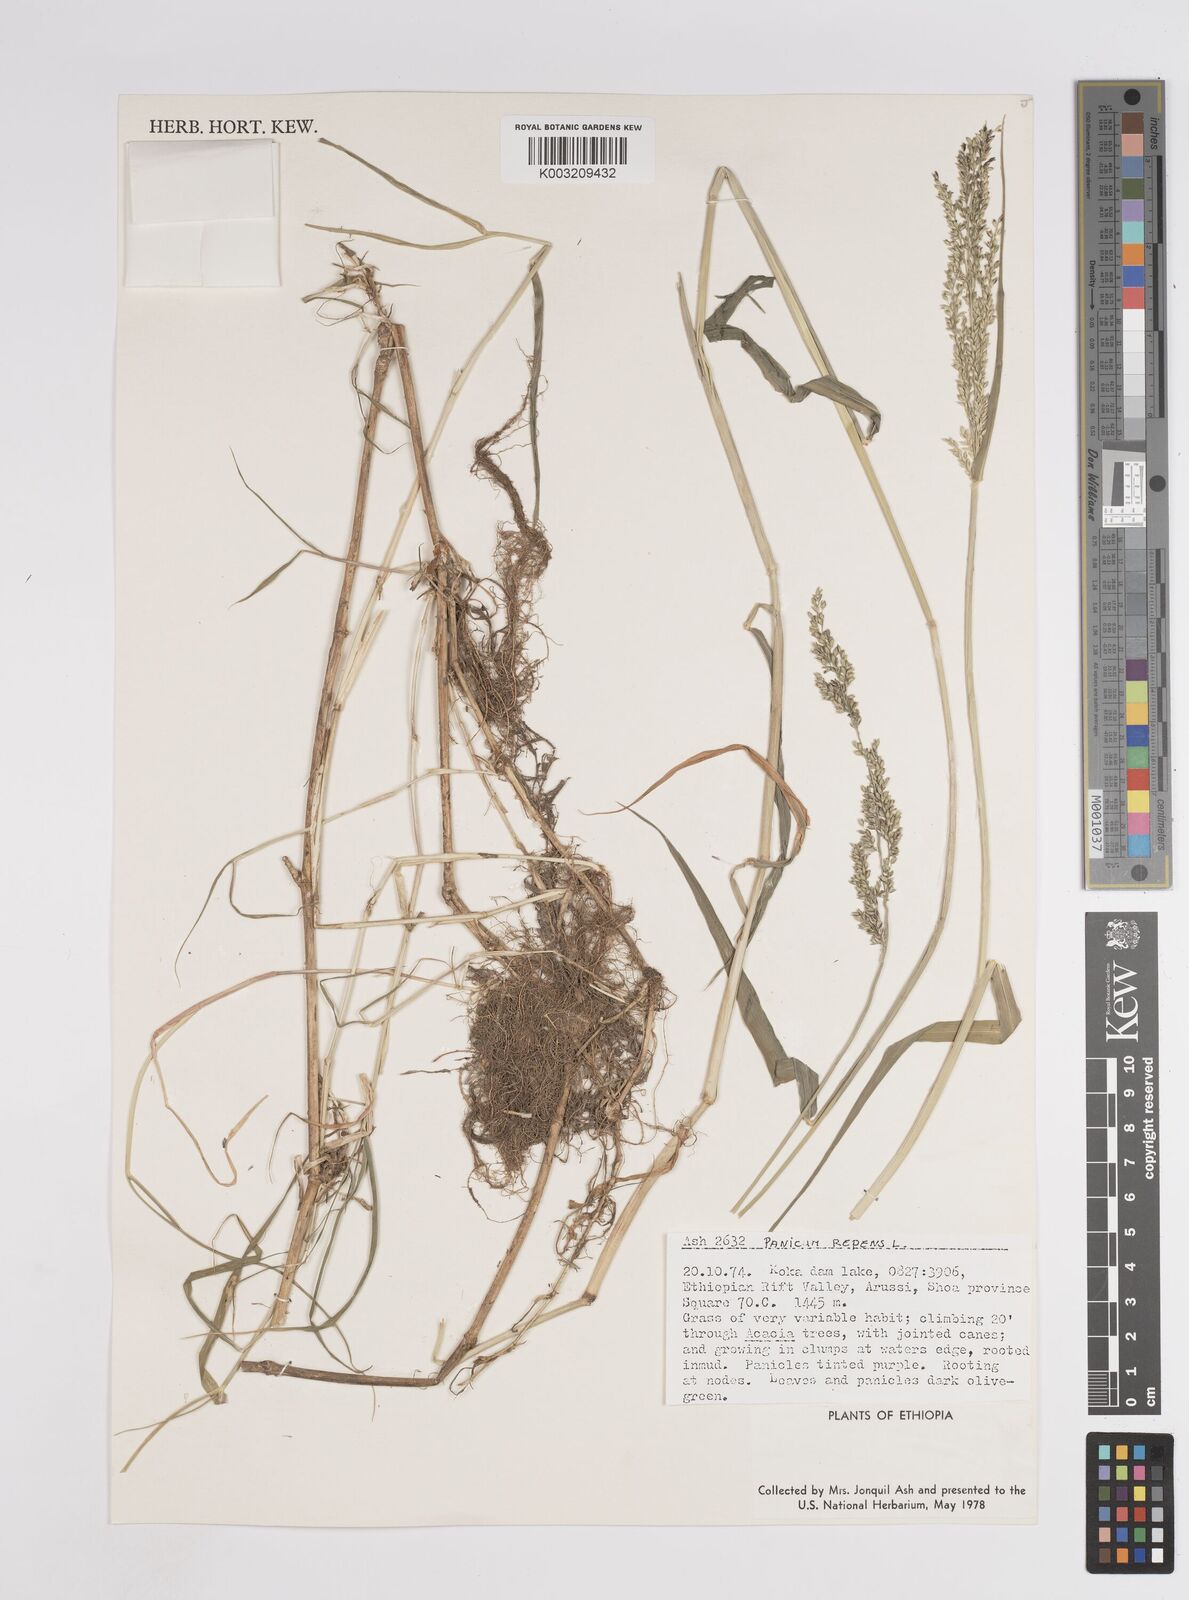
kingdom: Plantae
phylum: Tracheophyta
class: Liliopsida
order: Poales
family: Poaceae
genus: Panicum
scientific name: Panicum repens
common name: Torpedo grass
